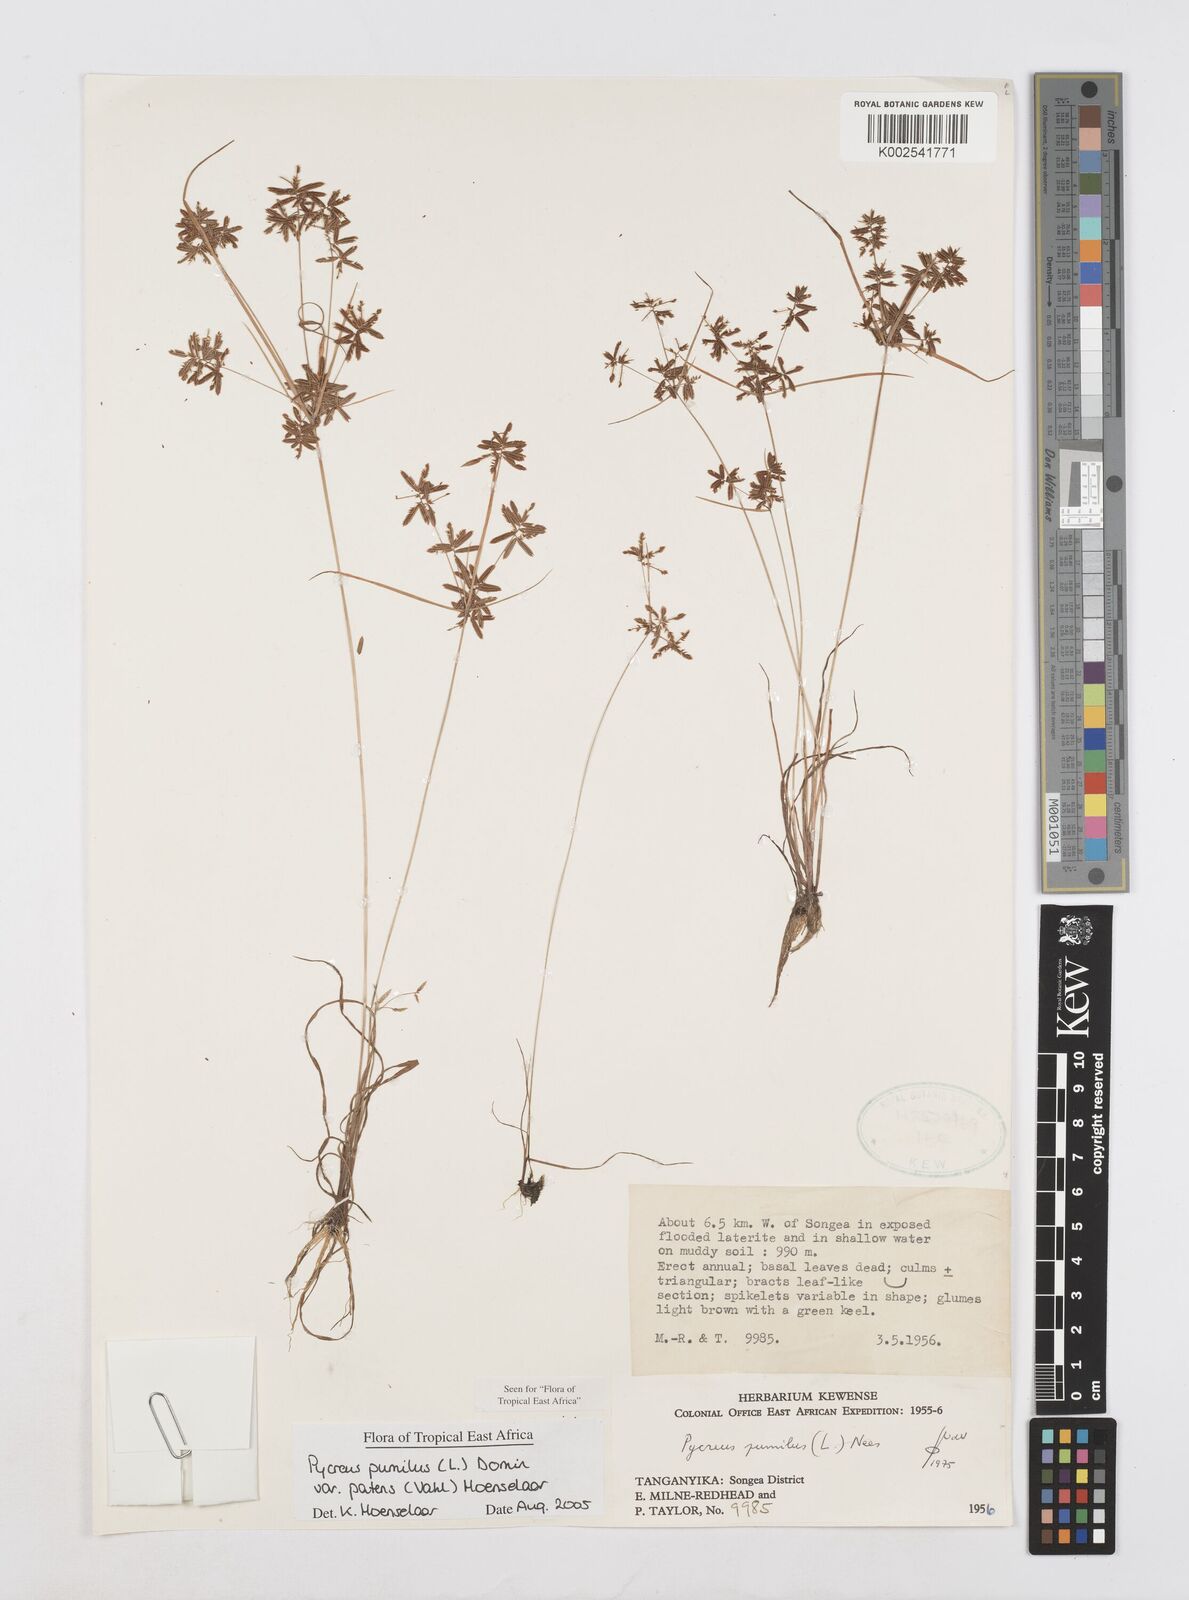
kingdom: Plantae
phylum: Tracheophyta
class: Liliopsida
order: Poales
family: Cyperaceae
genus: Cyperus
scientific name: Cyperus pumilus
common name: Low flatsedge
